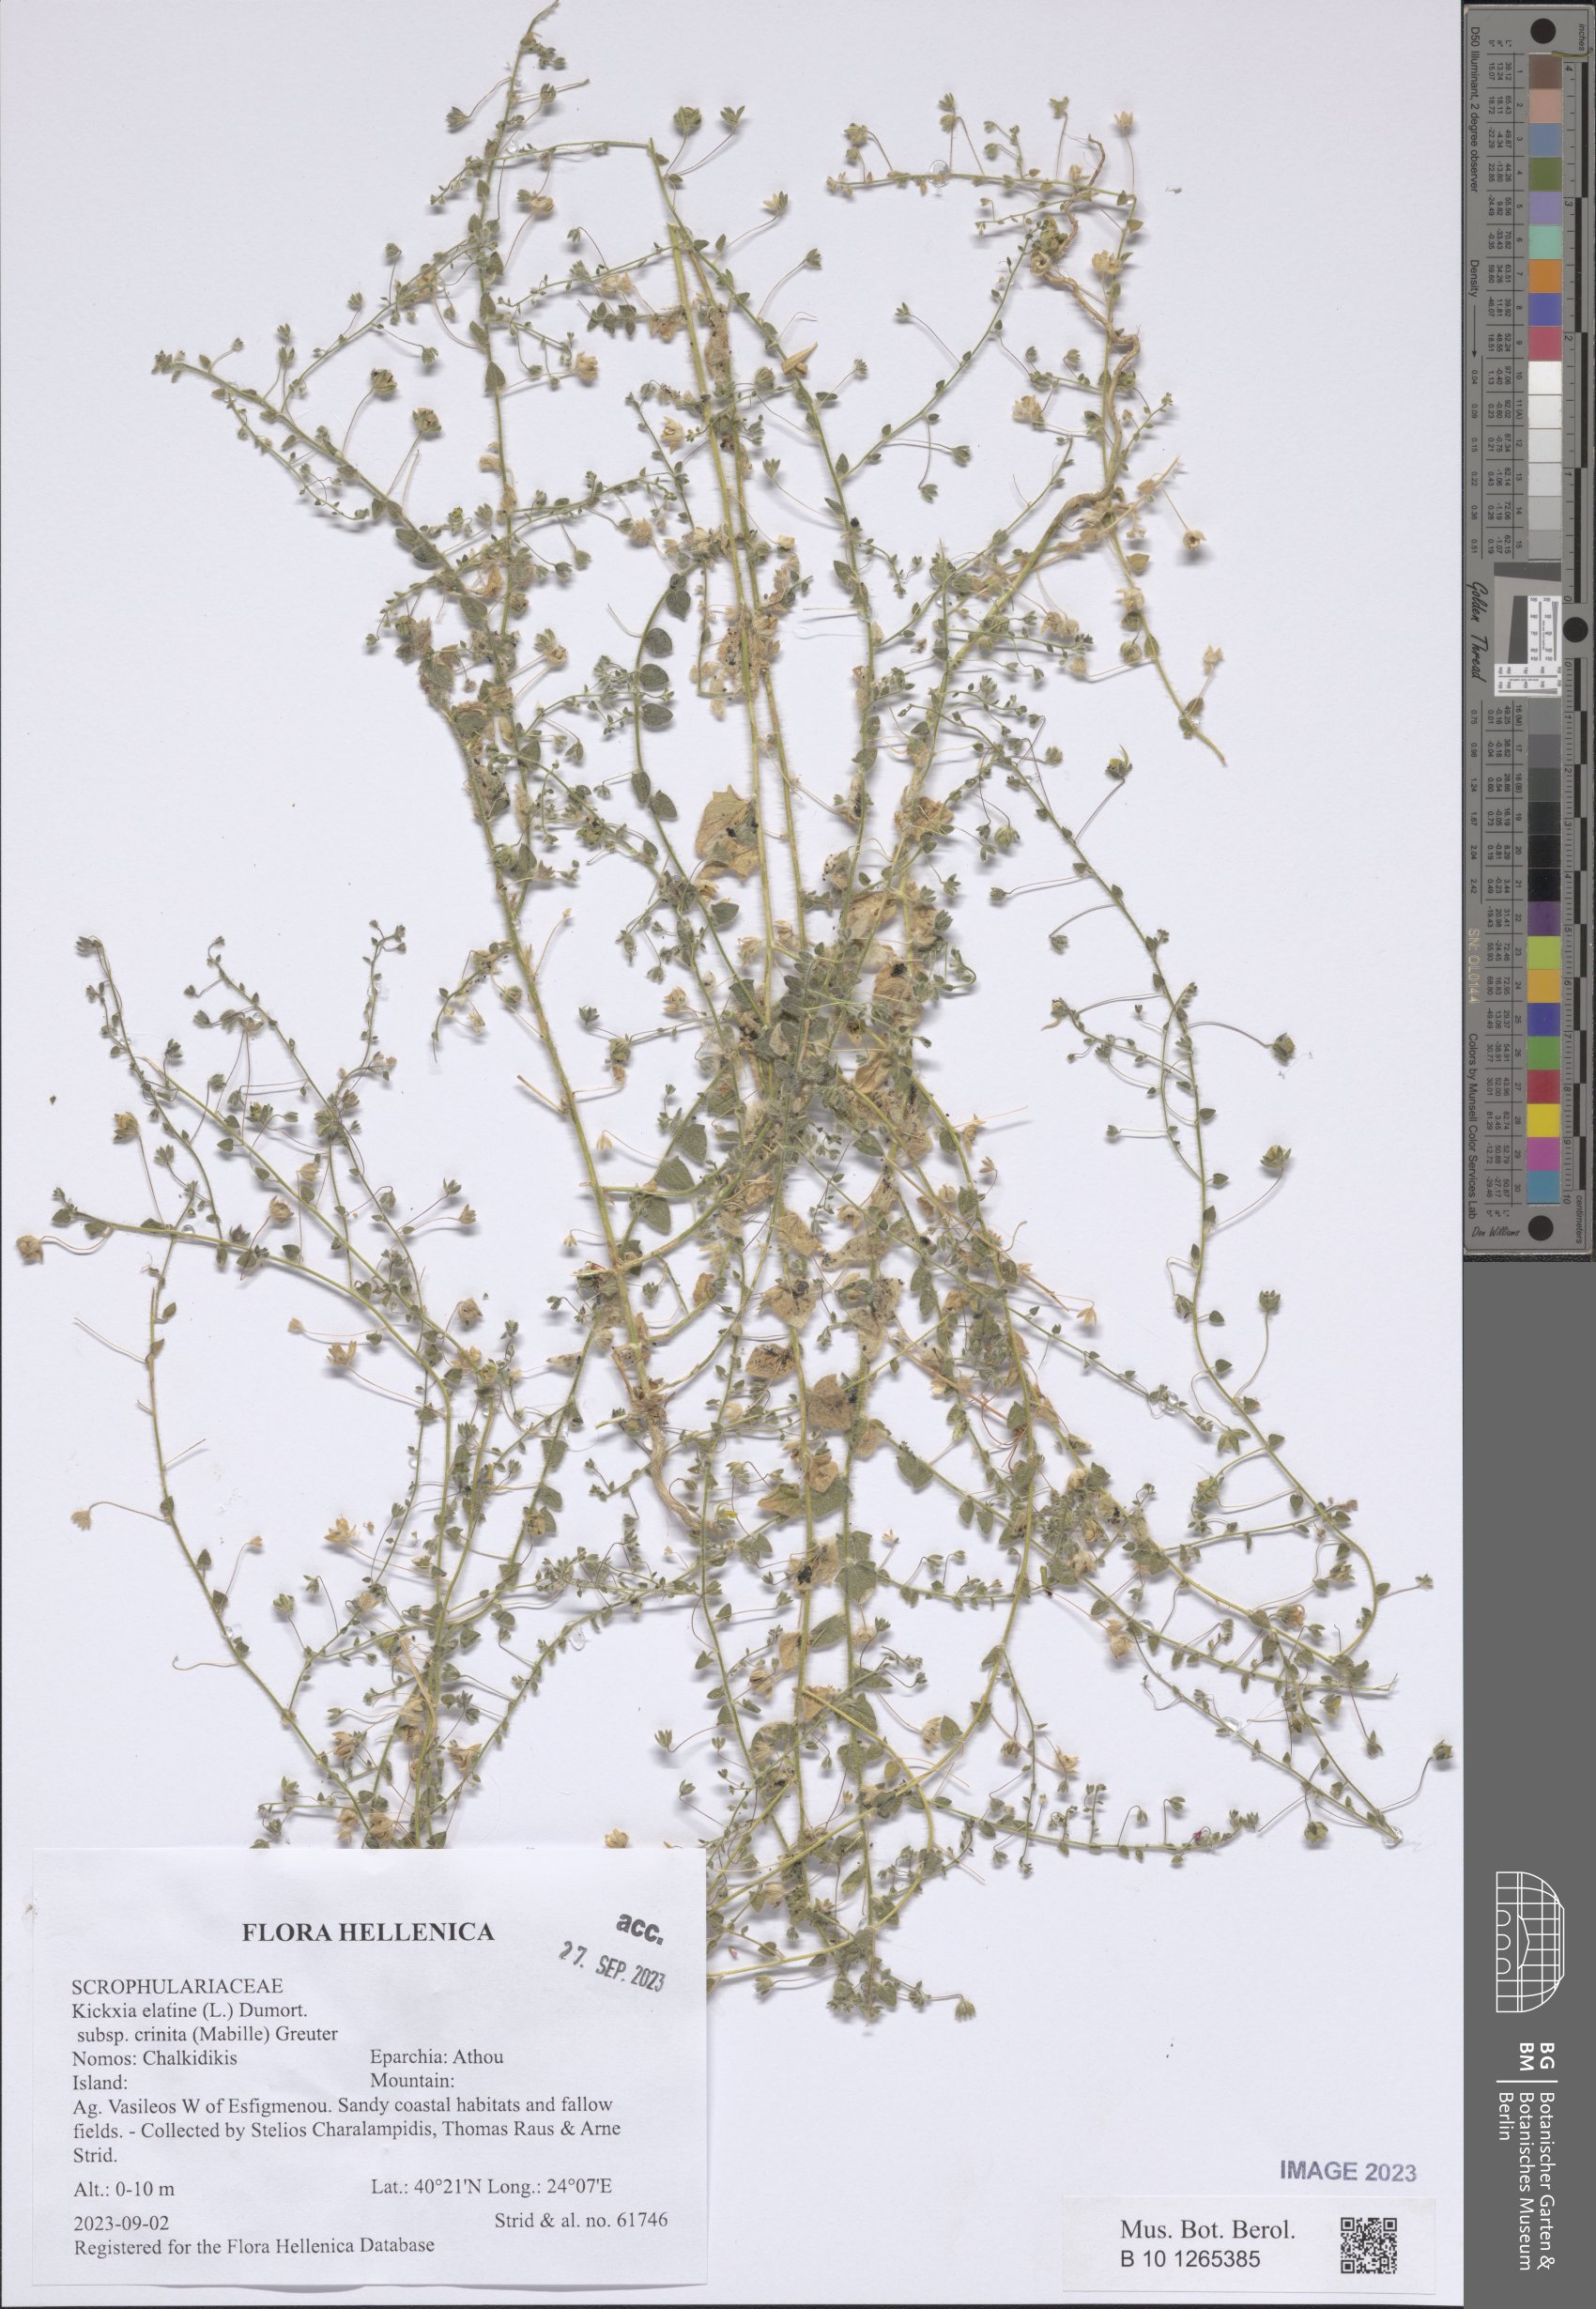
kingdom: Plantae
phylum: Tracheophyta
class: Magnoliopsida
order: Lamiales
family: Plantaginaceae
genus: Kickxia
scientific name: Kickxia elatine
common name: Sharp-leaved fluellen
